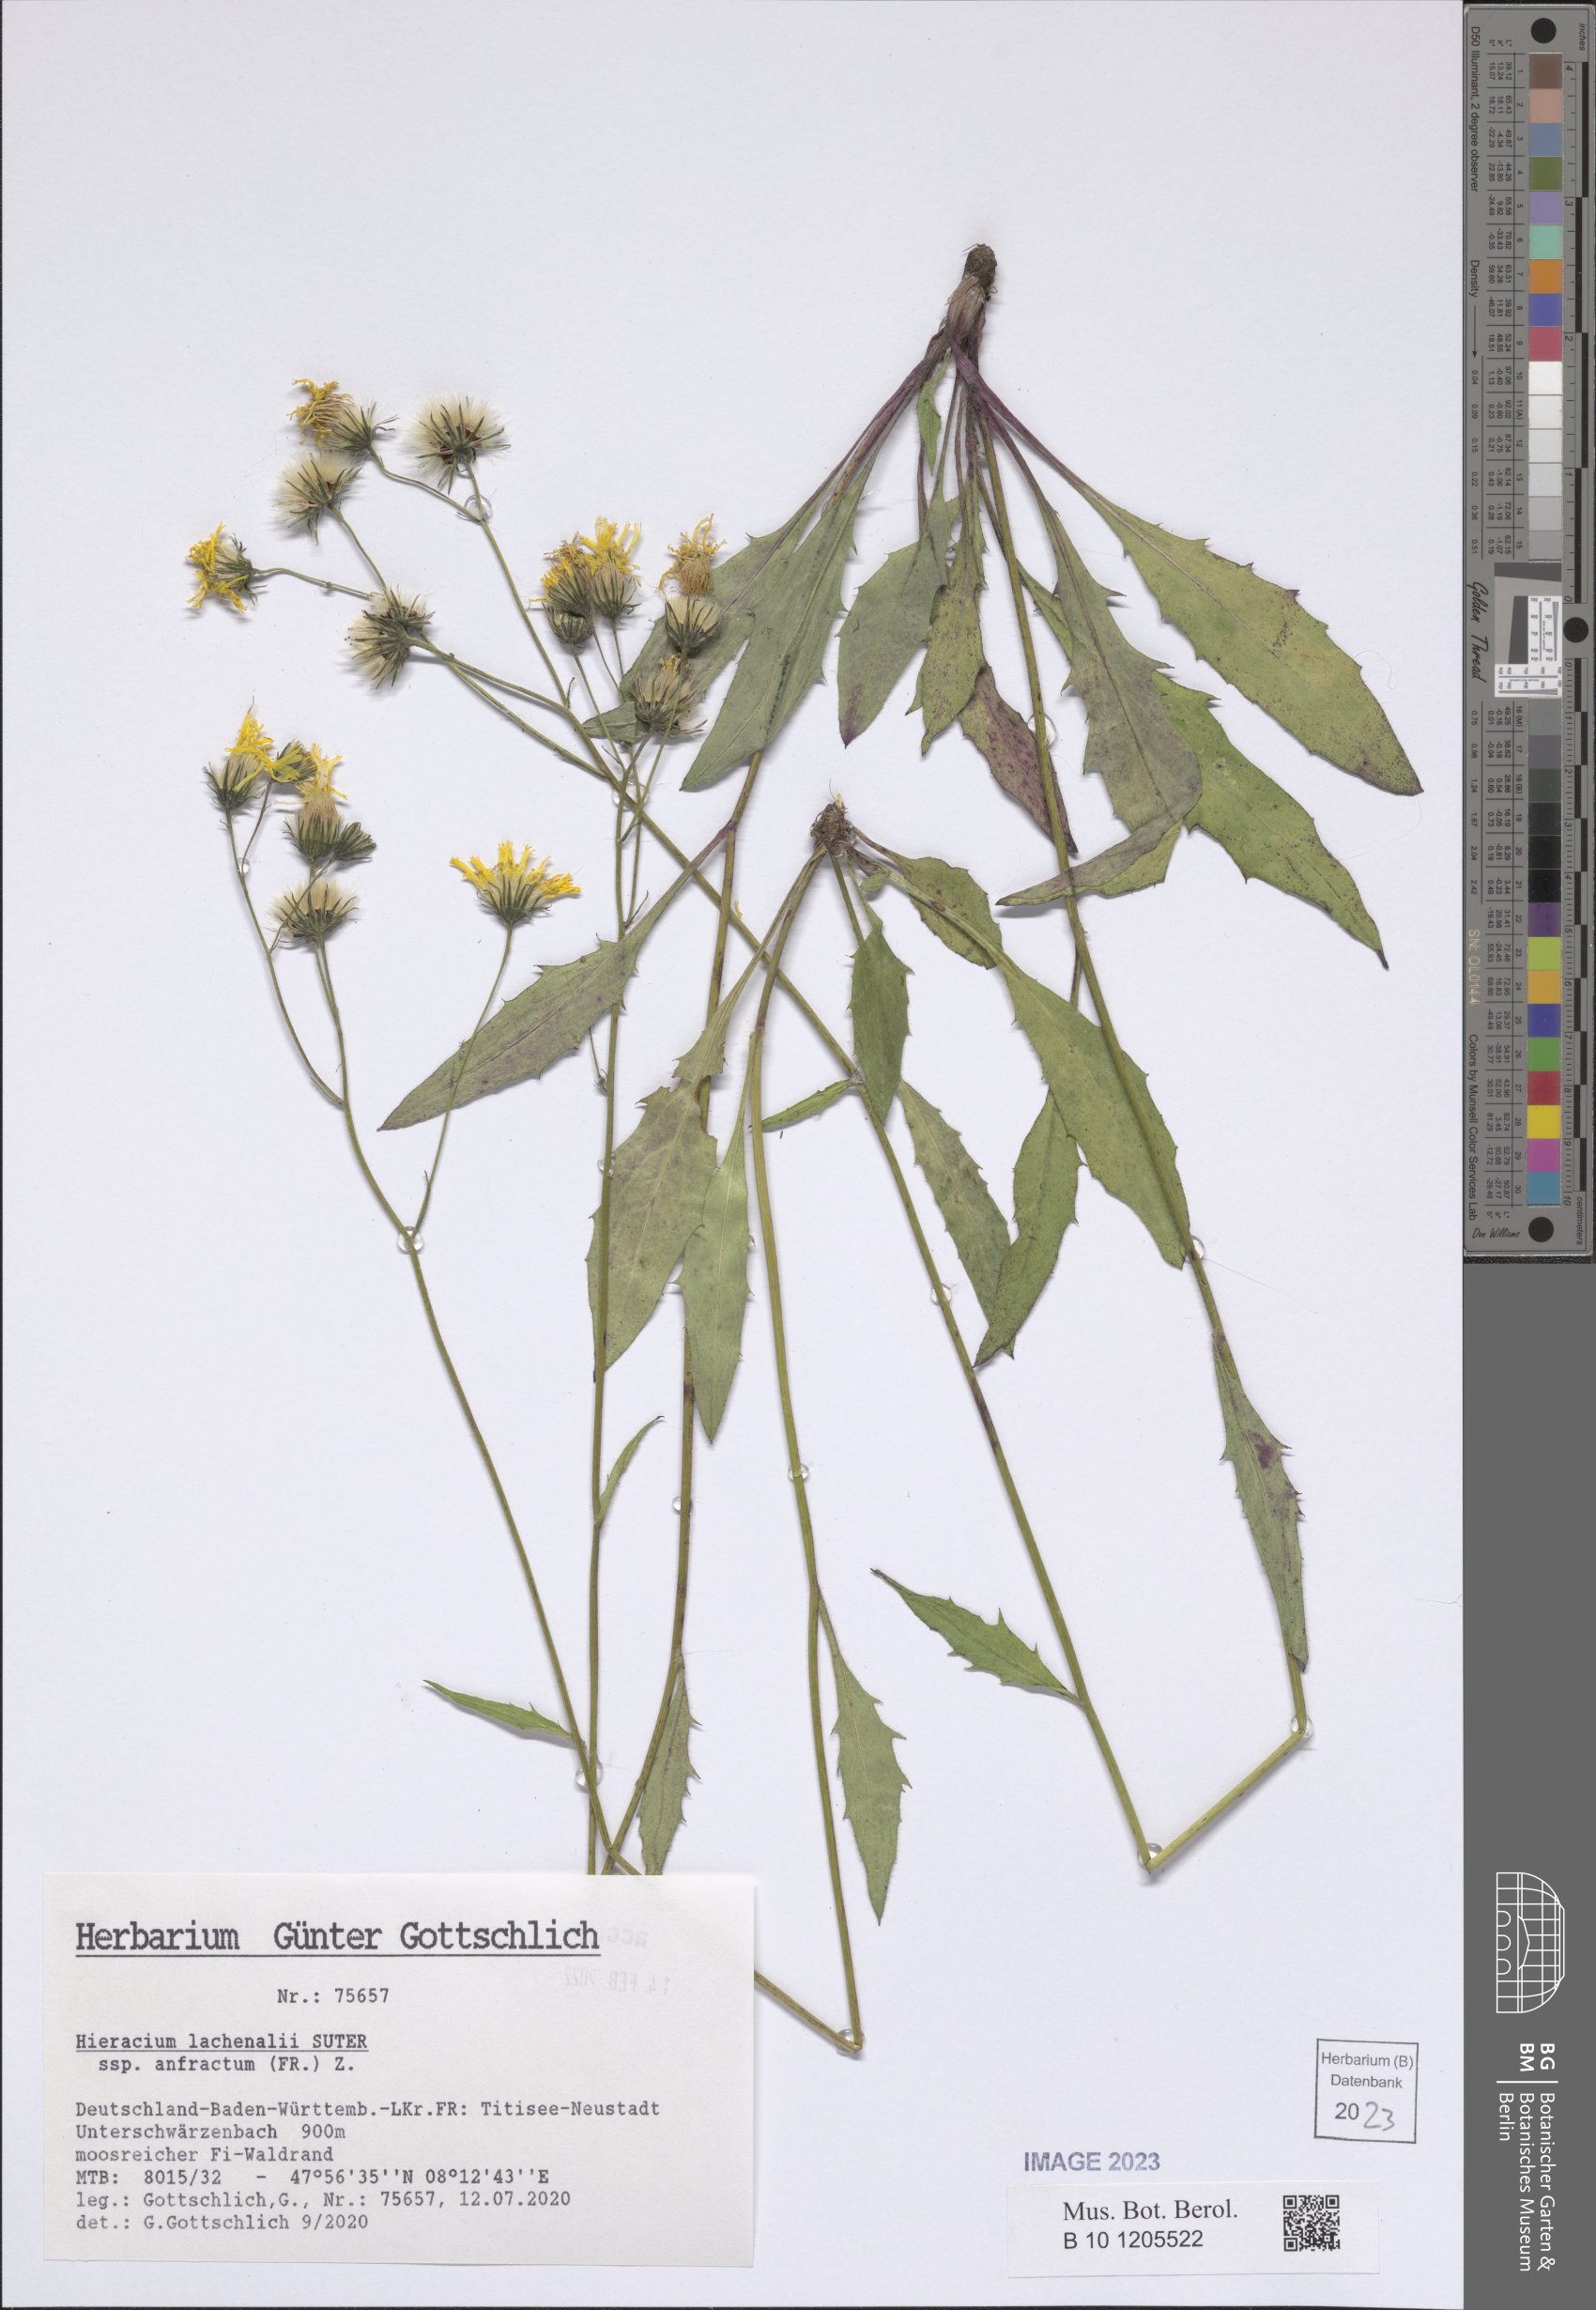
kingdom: Plantae
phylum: Tracheophyta
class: Magnoliopsida
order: Asterales
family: Asteraceae
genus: Hieracium
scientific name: Hieracium lachenalii
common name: Common hawkweed
